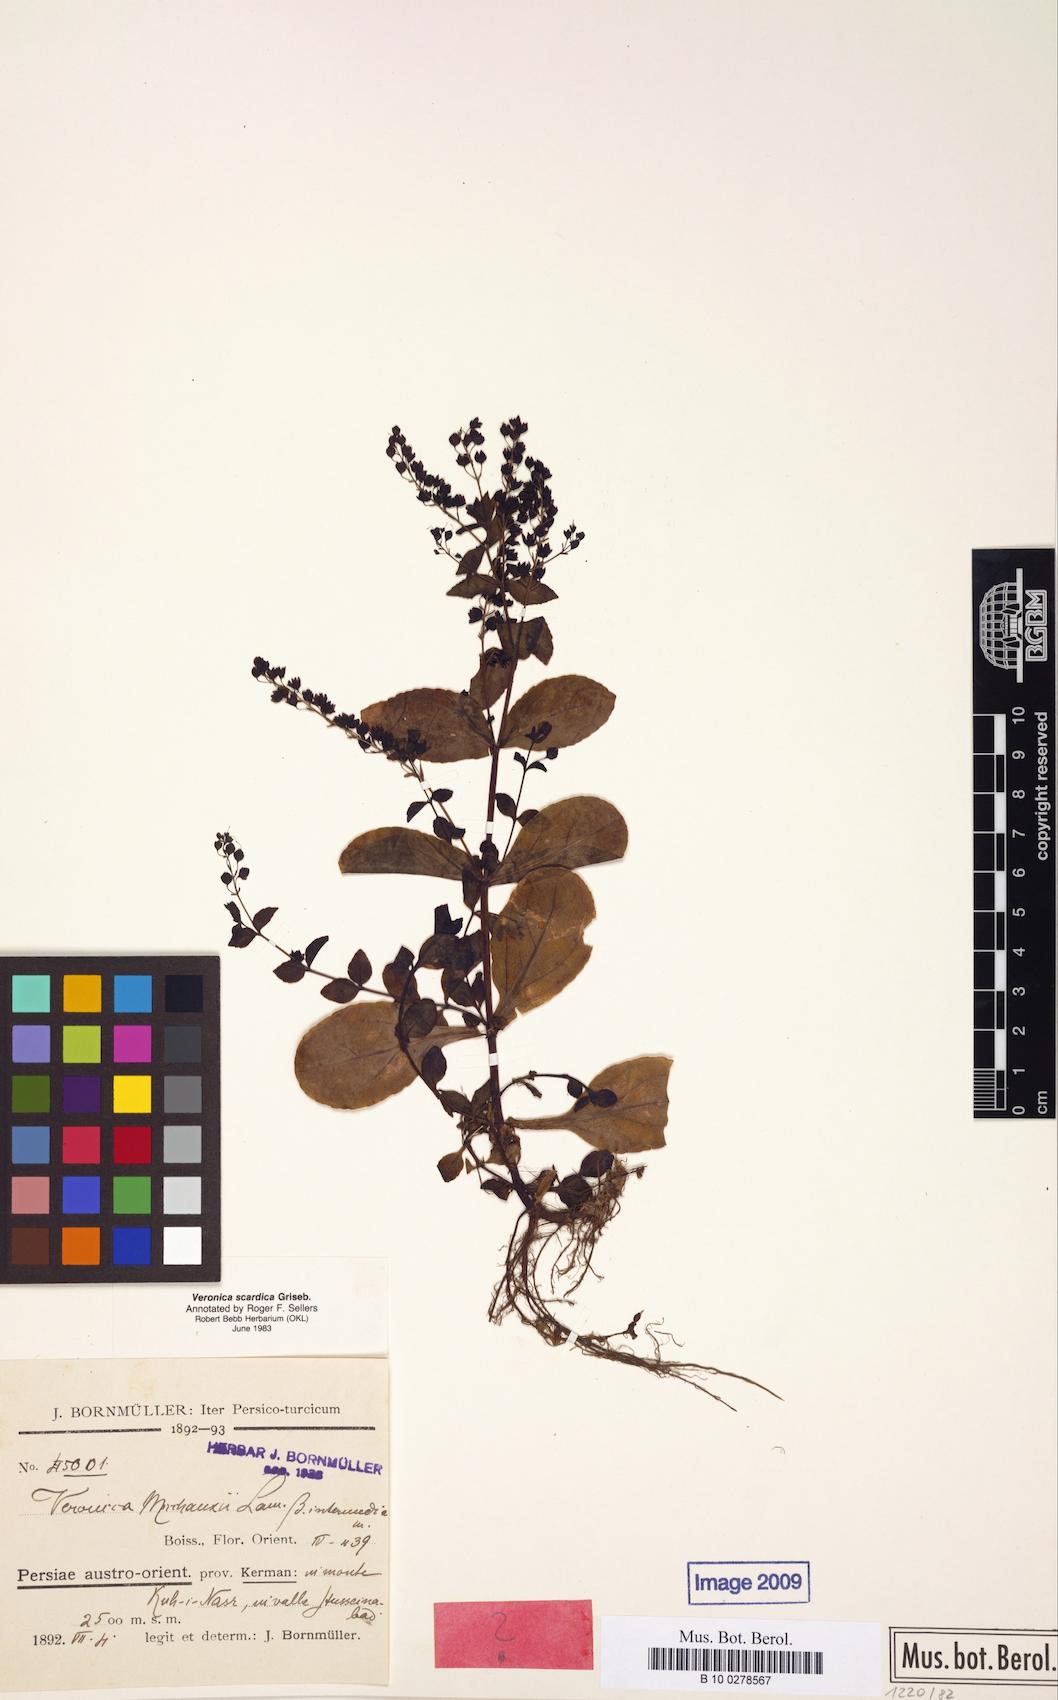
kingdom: Plantae
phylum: Tracheophyta
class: Magnoliopsida
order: Lamiales
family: Plantaginaceae
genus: Veronica
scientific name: Veronica scardica
